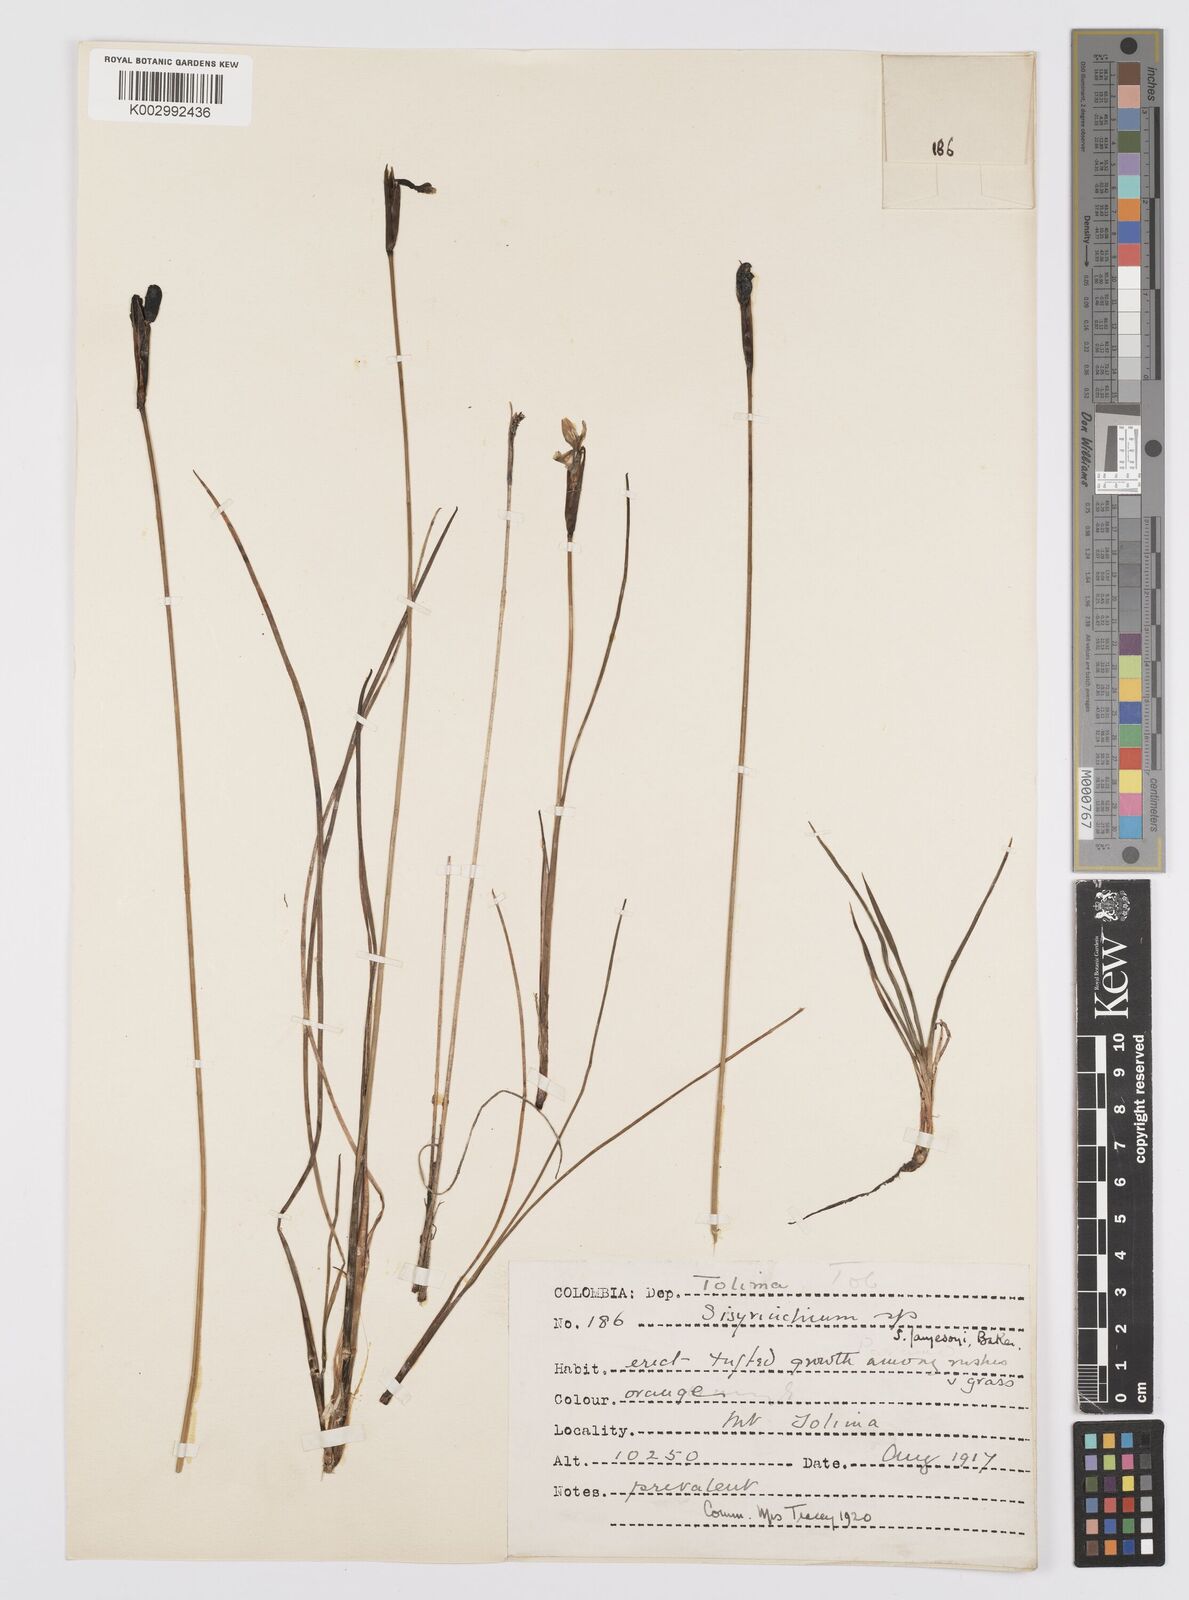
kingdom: Plantae
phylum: Tracheophyta
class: Liliopsida
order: Asparagales
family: Iridaceae
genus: Sisyrinchium
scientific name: Sisyrinchium jamesonii
